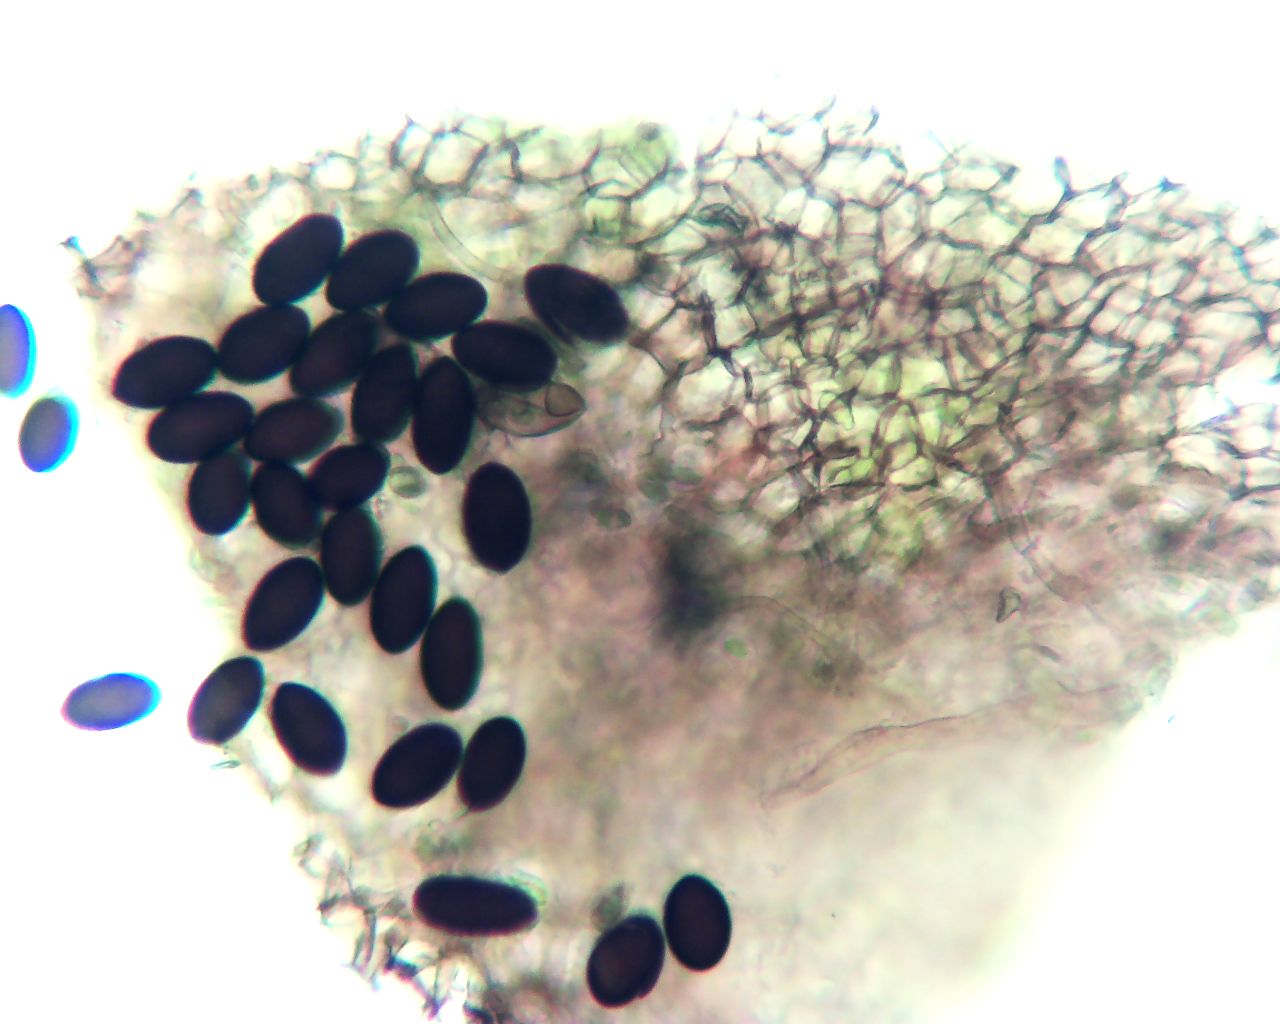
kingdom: Fungi
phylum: Ascomycota
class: Sordariomycetes
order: Sordariales
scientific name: Sordariales
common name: kernesvampordenen
